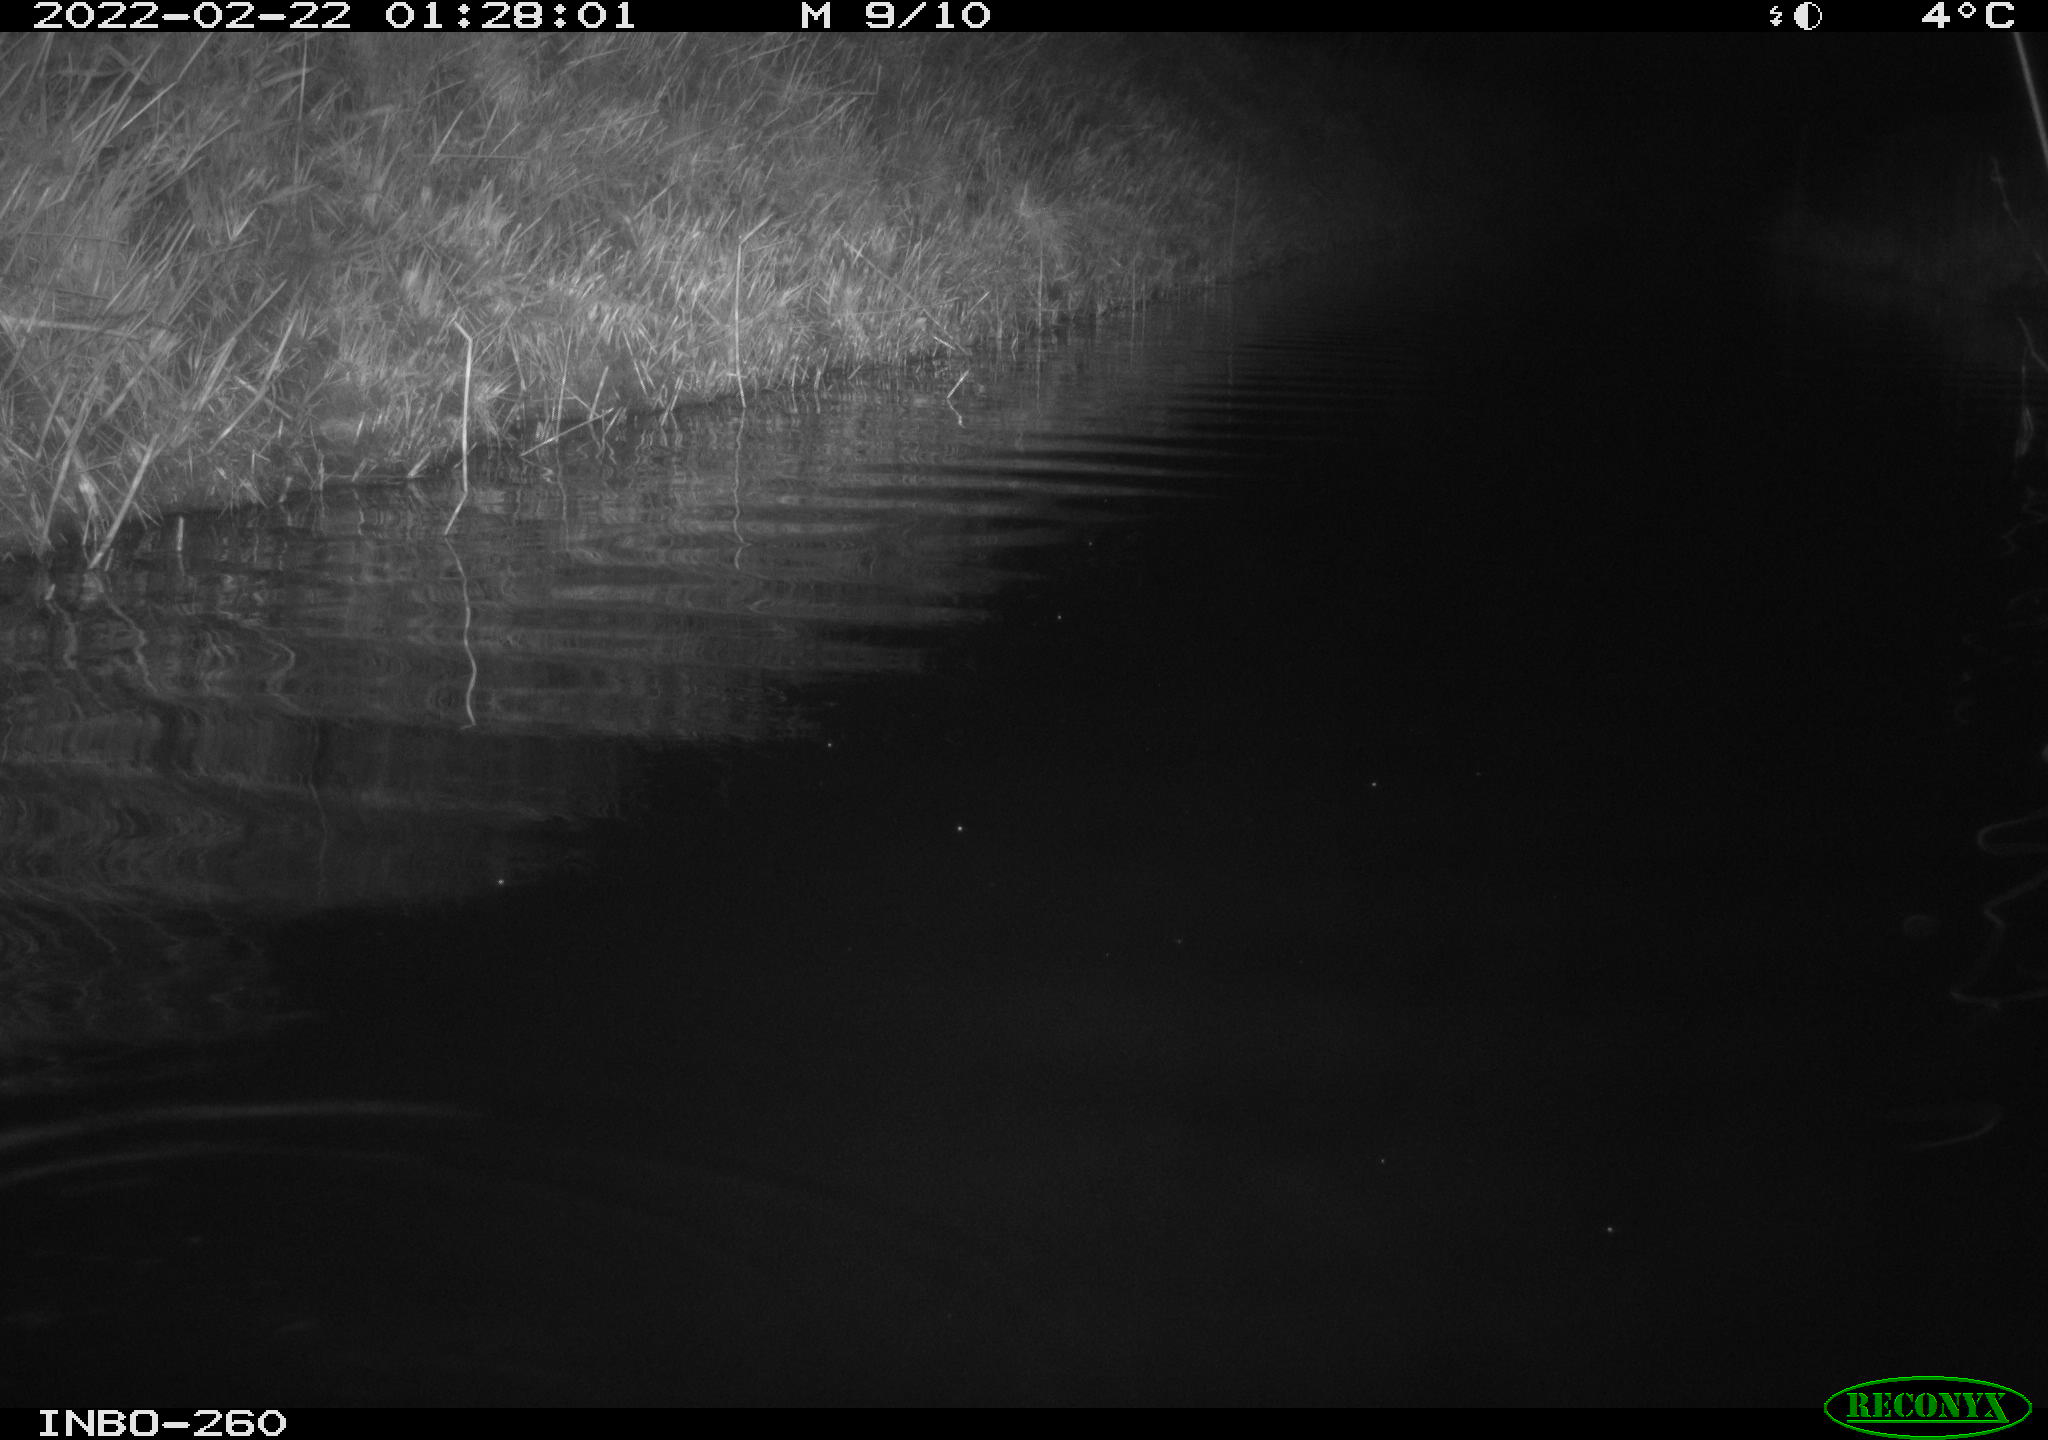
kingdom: Animalia
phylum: Chordata
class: Mammalia
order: Rodentia
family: Cricetidae
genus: Ondatra
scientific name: Ondatra zibethicus
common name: Muskrat
